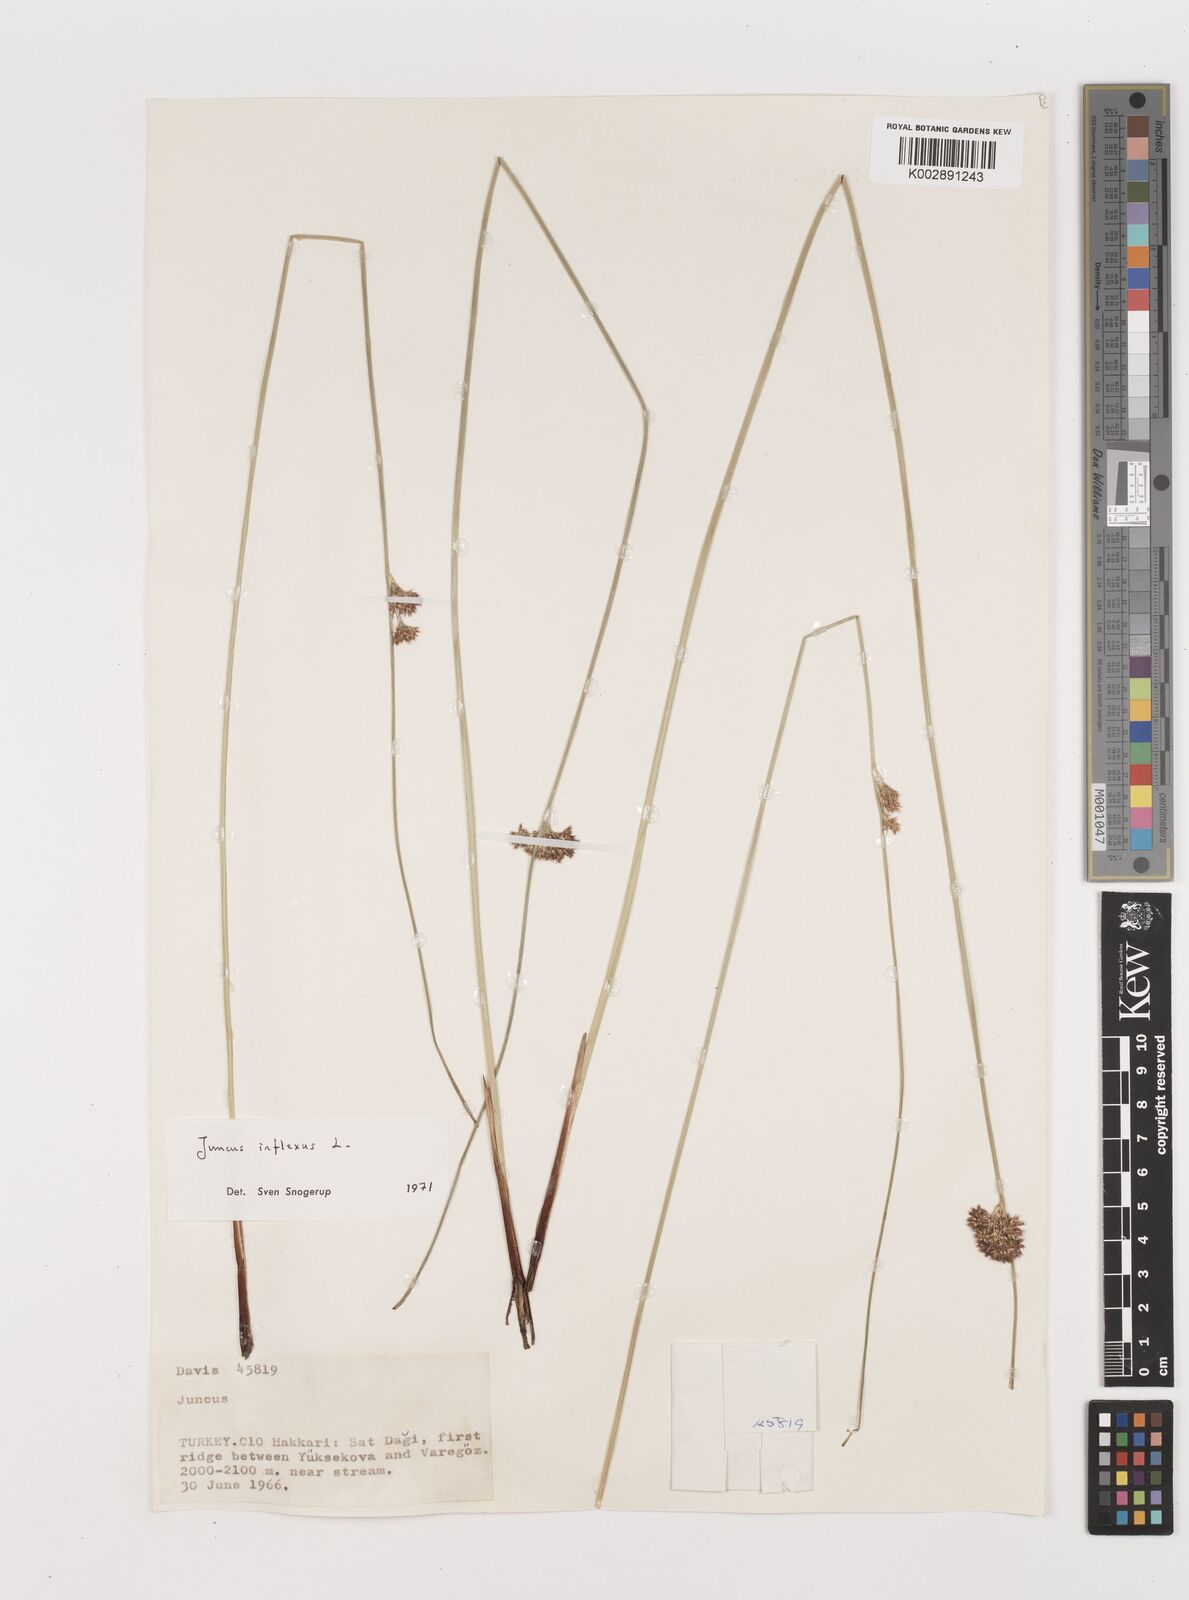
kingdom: Plantae
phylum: Tracheophyta
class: Liliopsida
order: Poales
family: Juncaceae
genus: Juncus
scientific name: Juncus inflexus
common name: Hard rush
